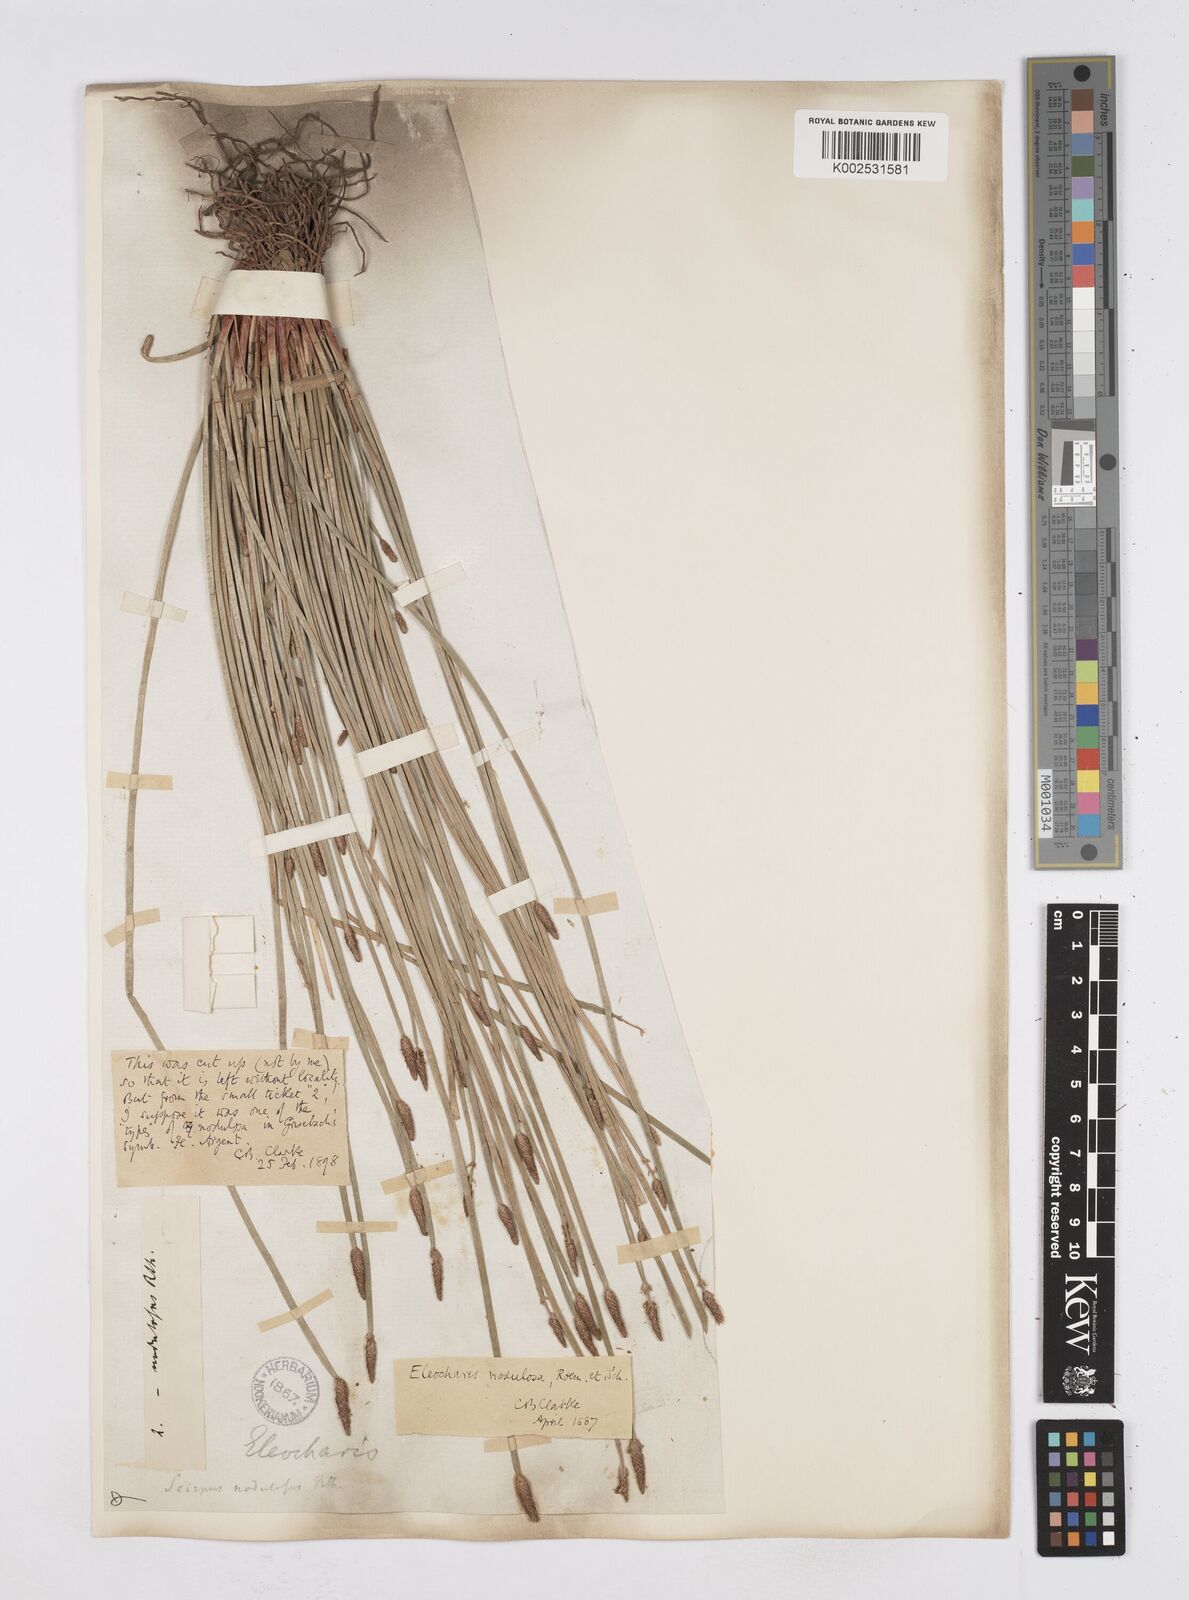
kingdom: Plantae
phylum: Tracheophyta
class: Liliopsida
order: Poales
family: Cyperaceae
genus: Eleocharis
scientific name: Eleocharis montana
